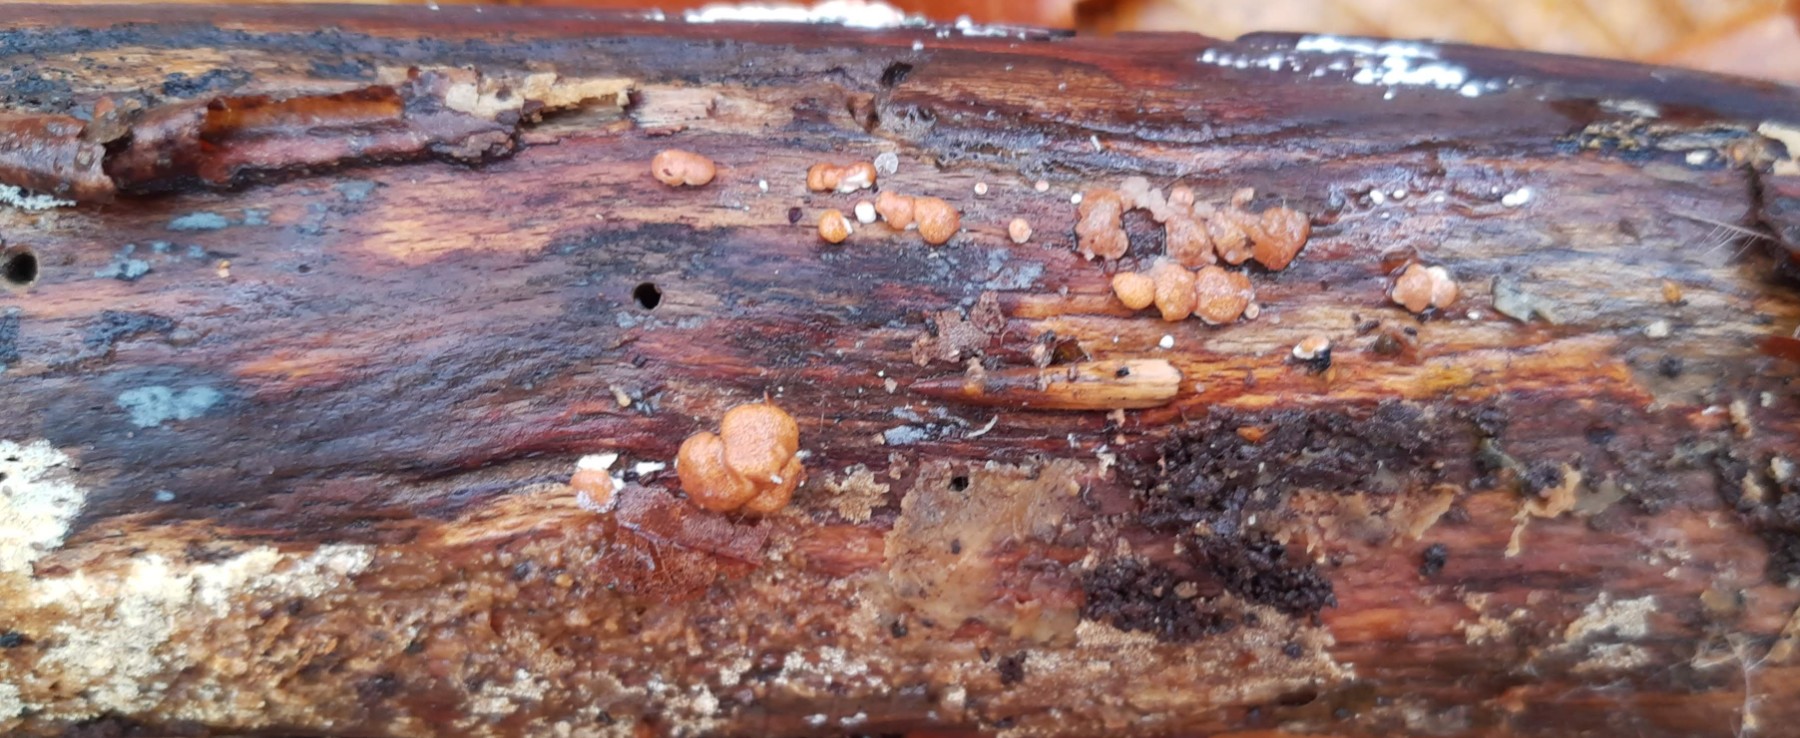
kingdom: Fungi
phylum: Ascomycota
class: Sordariomycetes
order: Hypocreales
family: Hypocreaceae
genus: Trichoderma
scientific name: Trichoderma europaeum
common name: rosabrun kødkerne
